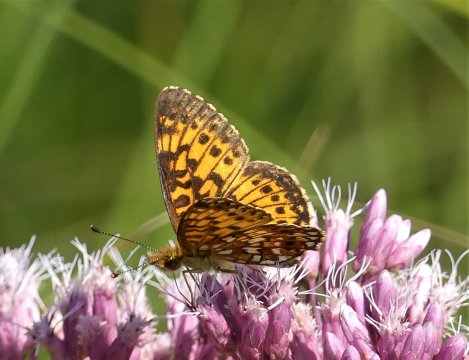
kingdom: Animalia
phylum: Arthropoda
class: Insecta
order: Lepidoptera
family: Nymphalidae
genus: Boloria
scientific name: Boloria selene
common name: Silver-bordered Fritillary
